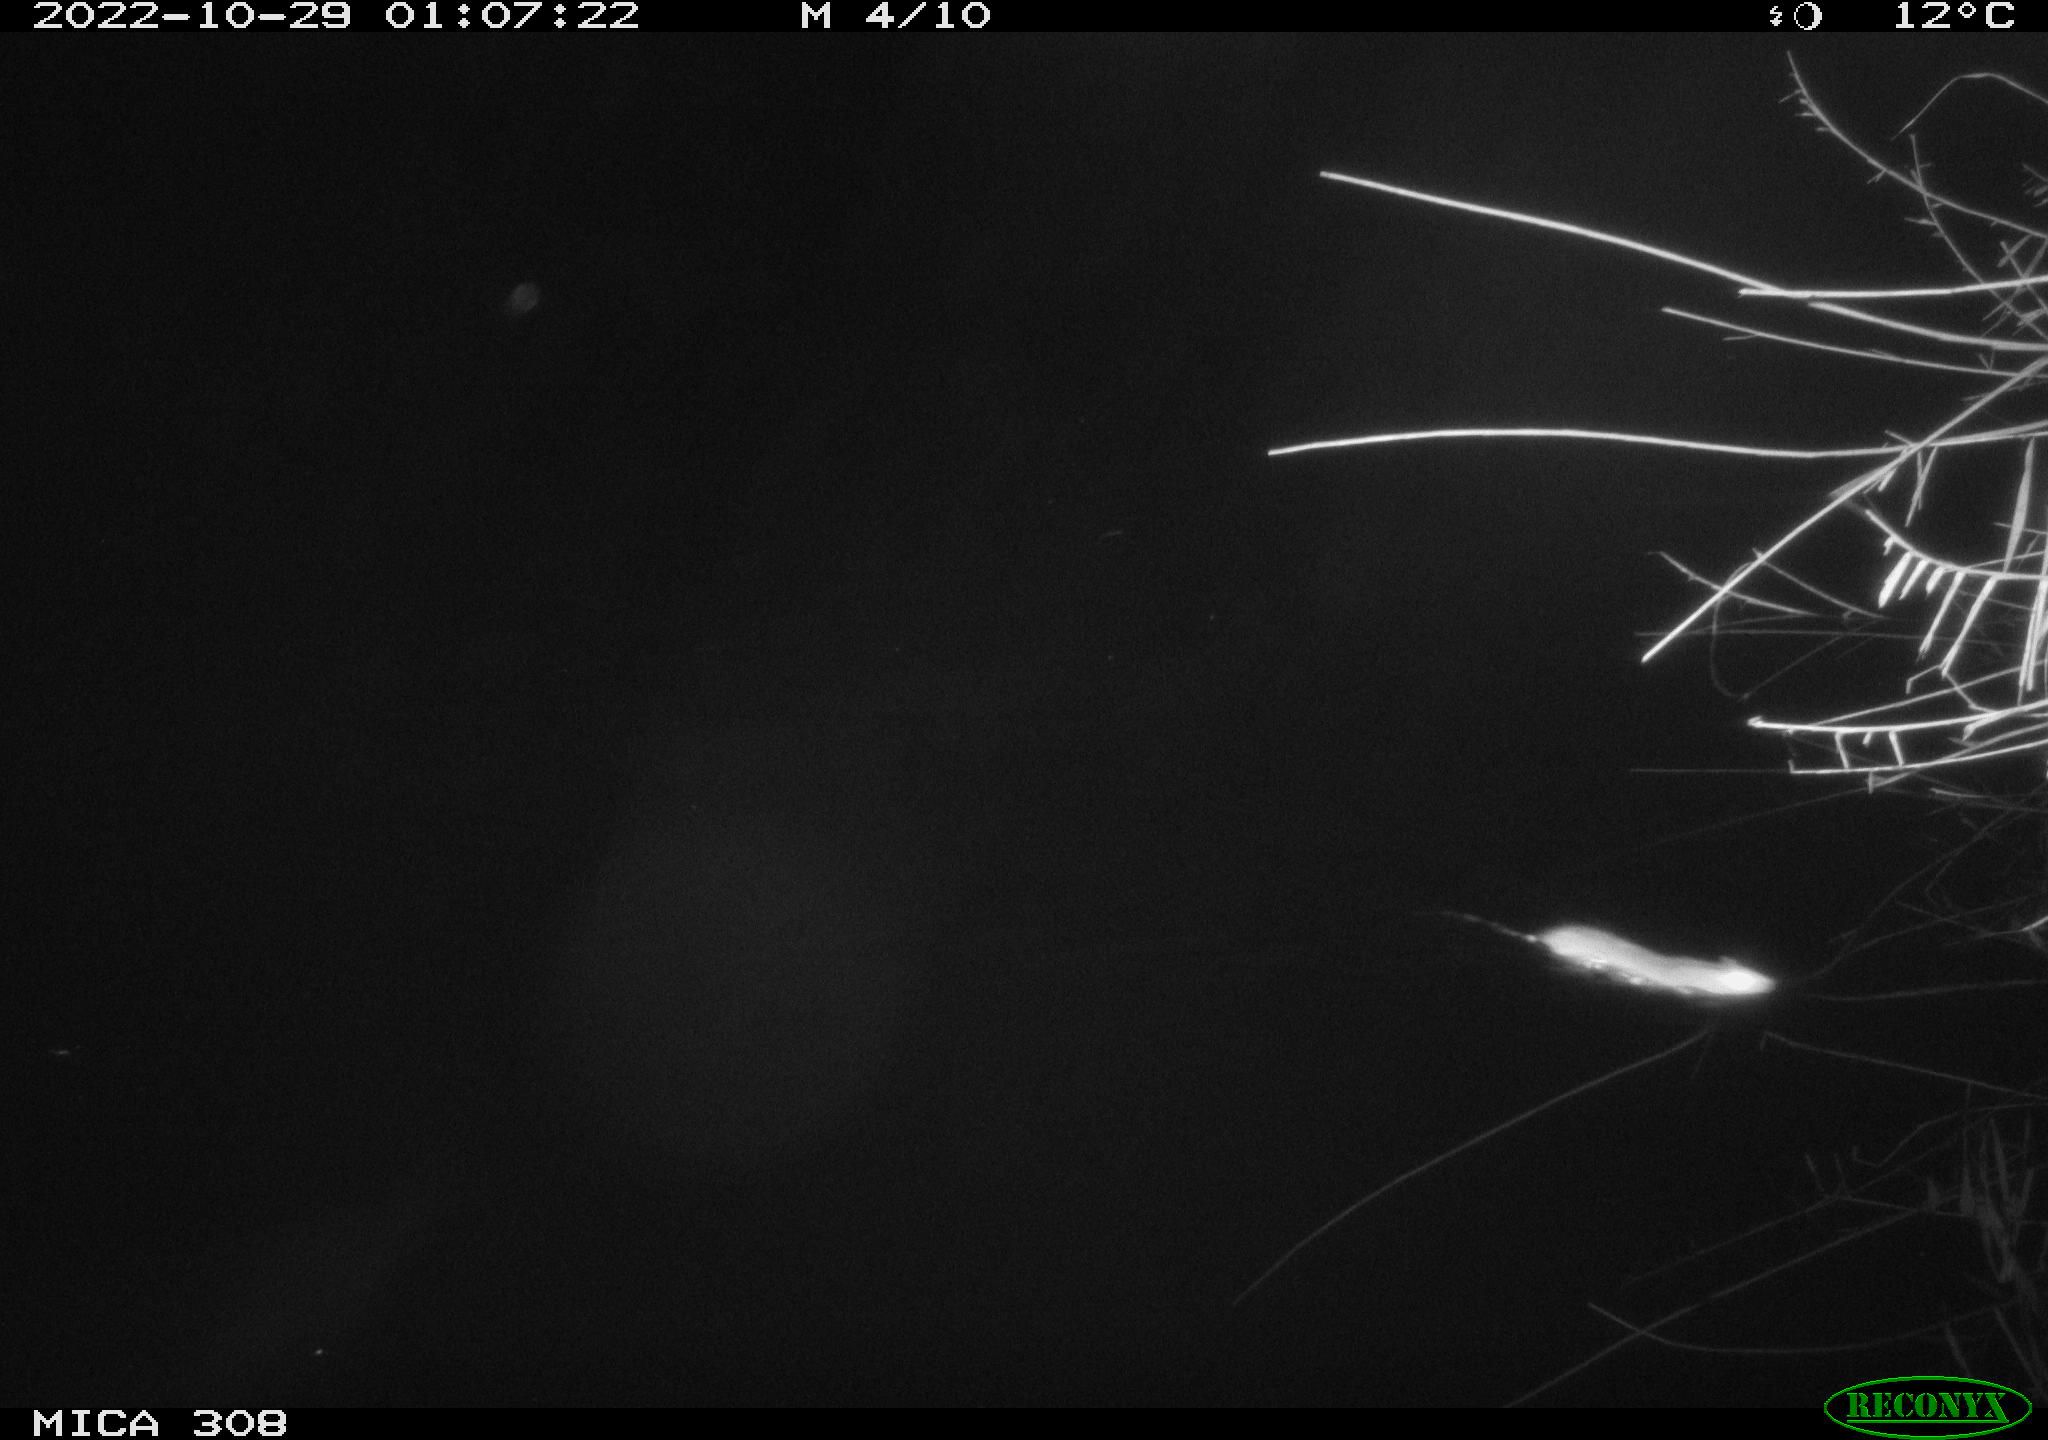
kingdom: Animalia
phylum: Chordata
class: Mammalia
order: Rodentia
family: Muridae
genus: Rattus
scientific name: Rattus norvegicus
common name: Brown rat
